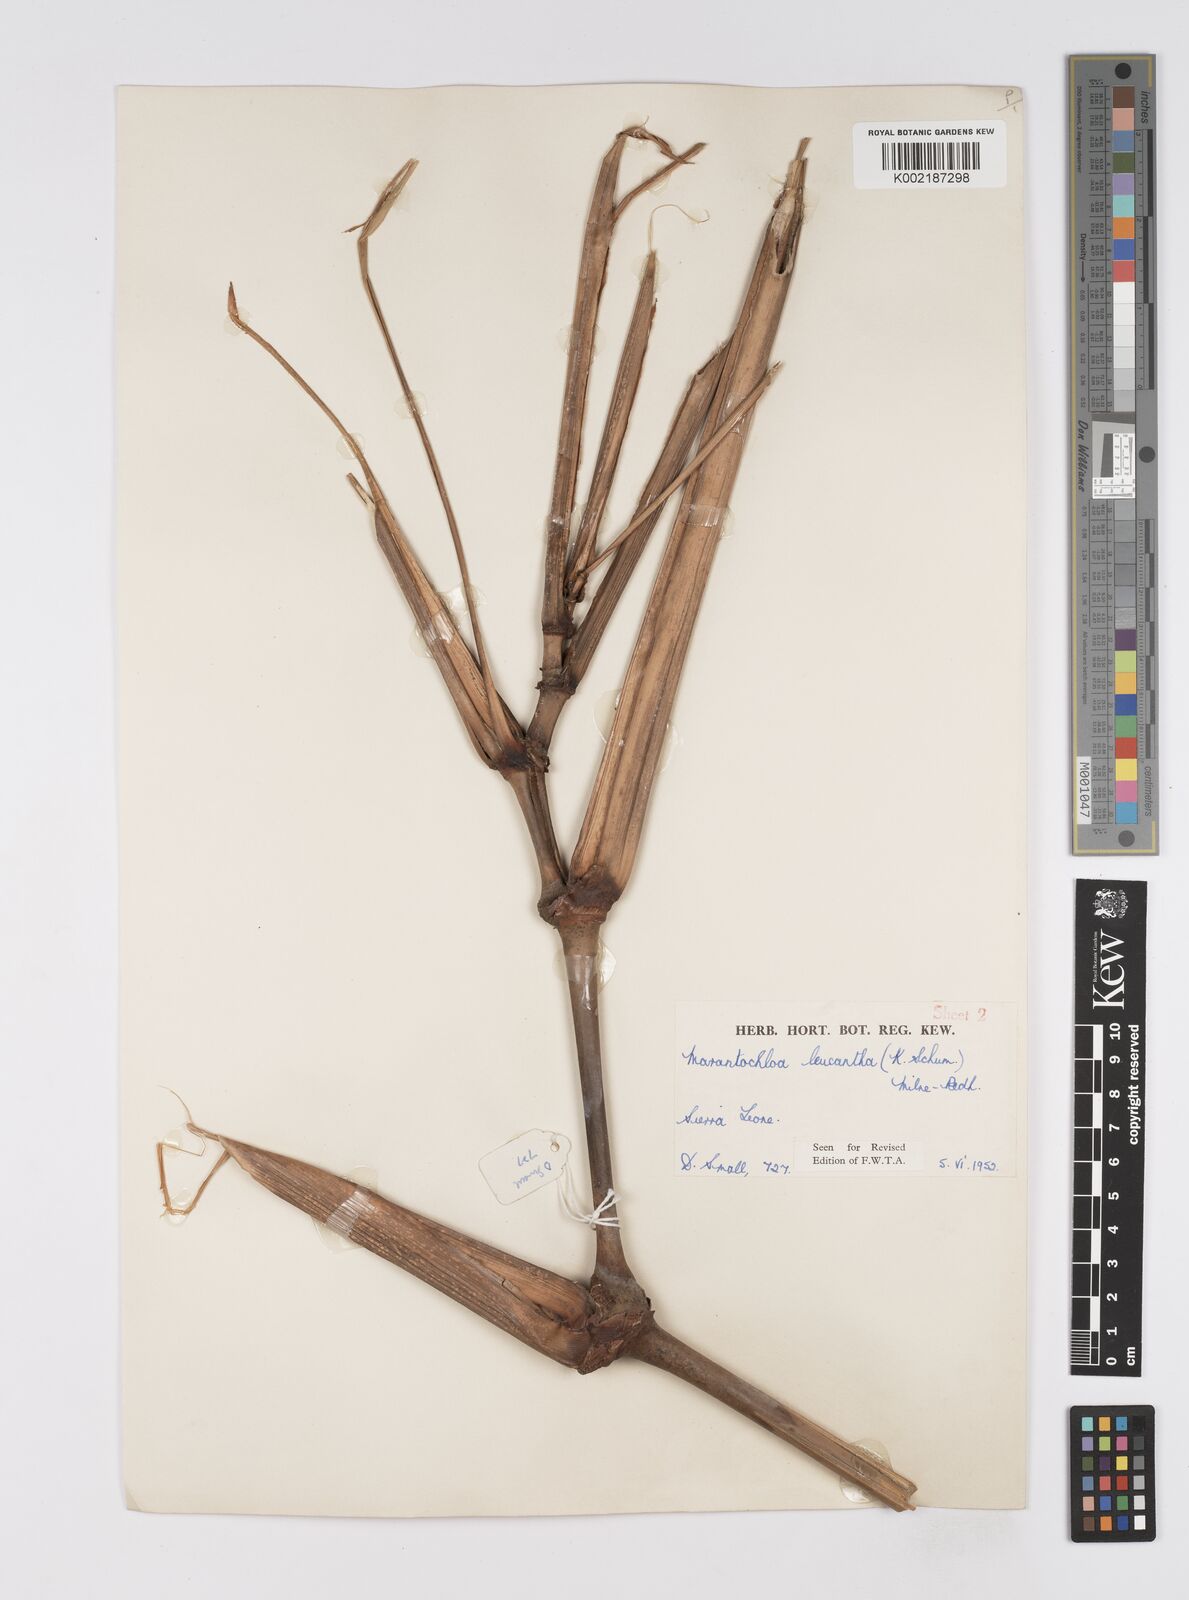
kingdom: Plantae
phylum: Tracheophyta
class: Liliopsida
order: Zingiberales
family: Marantaceae
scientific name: Marantaceae
